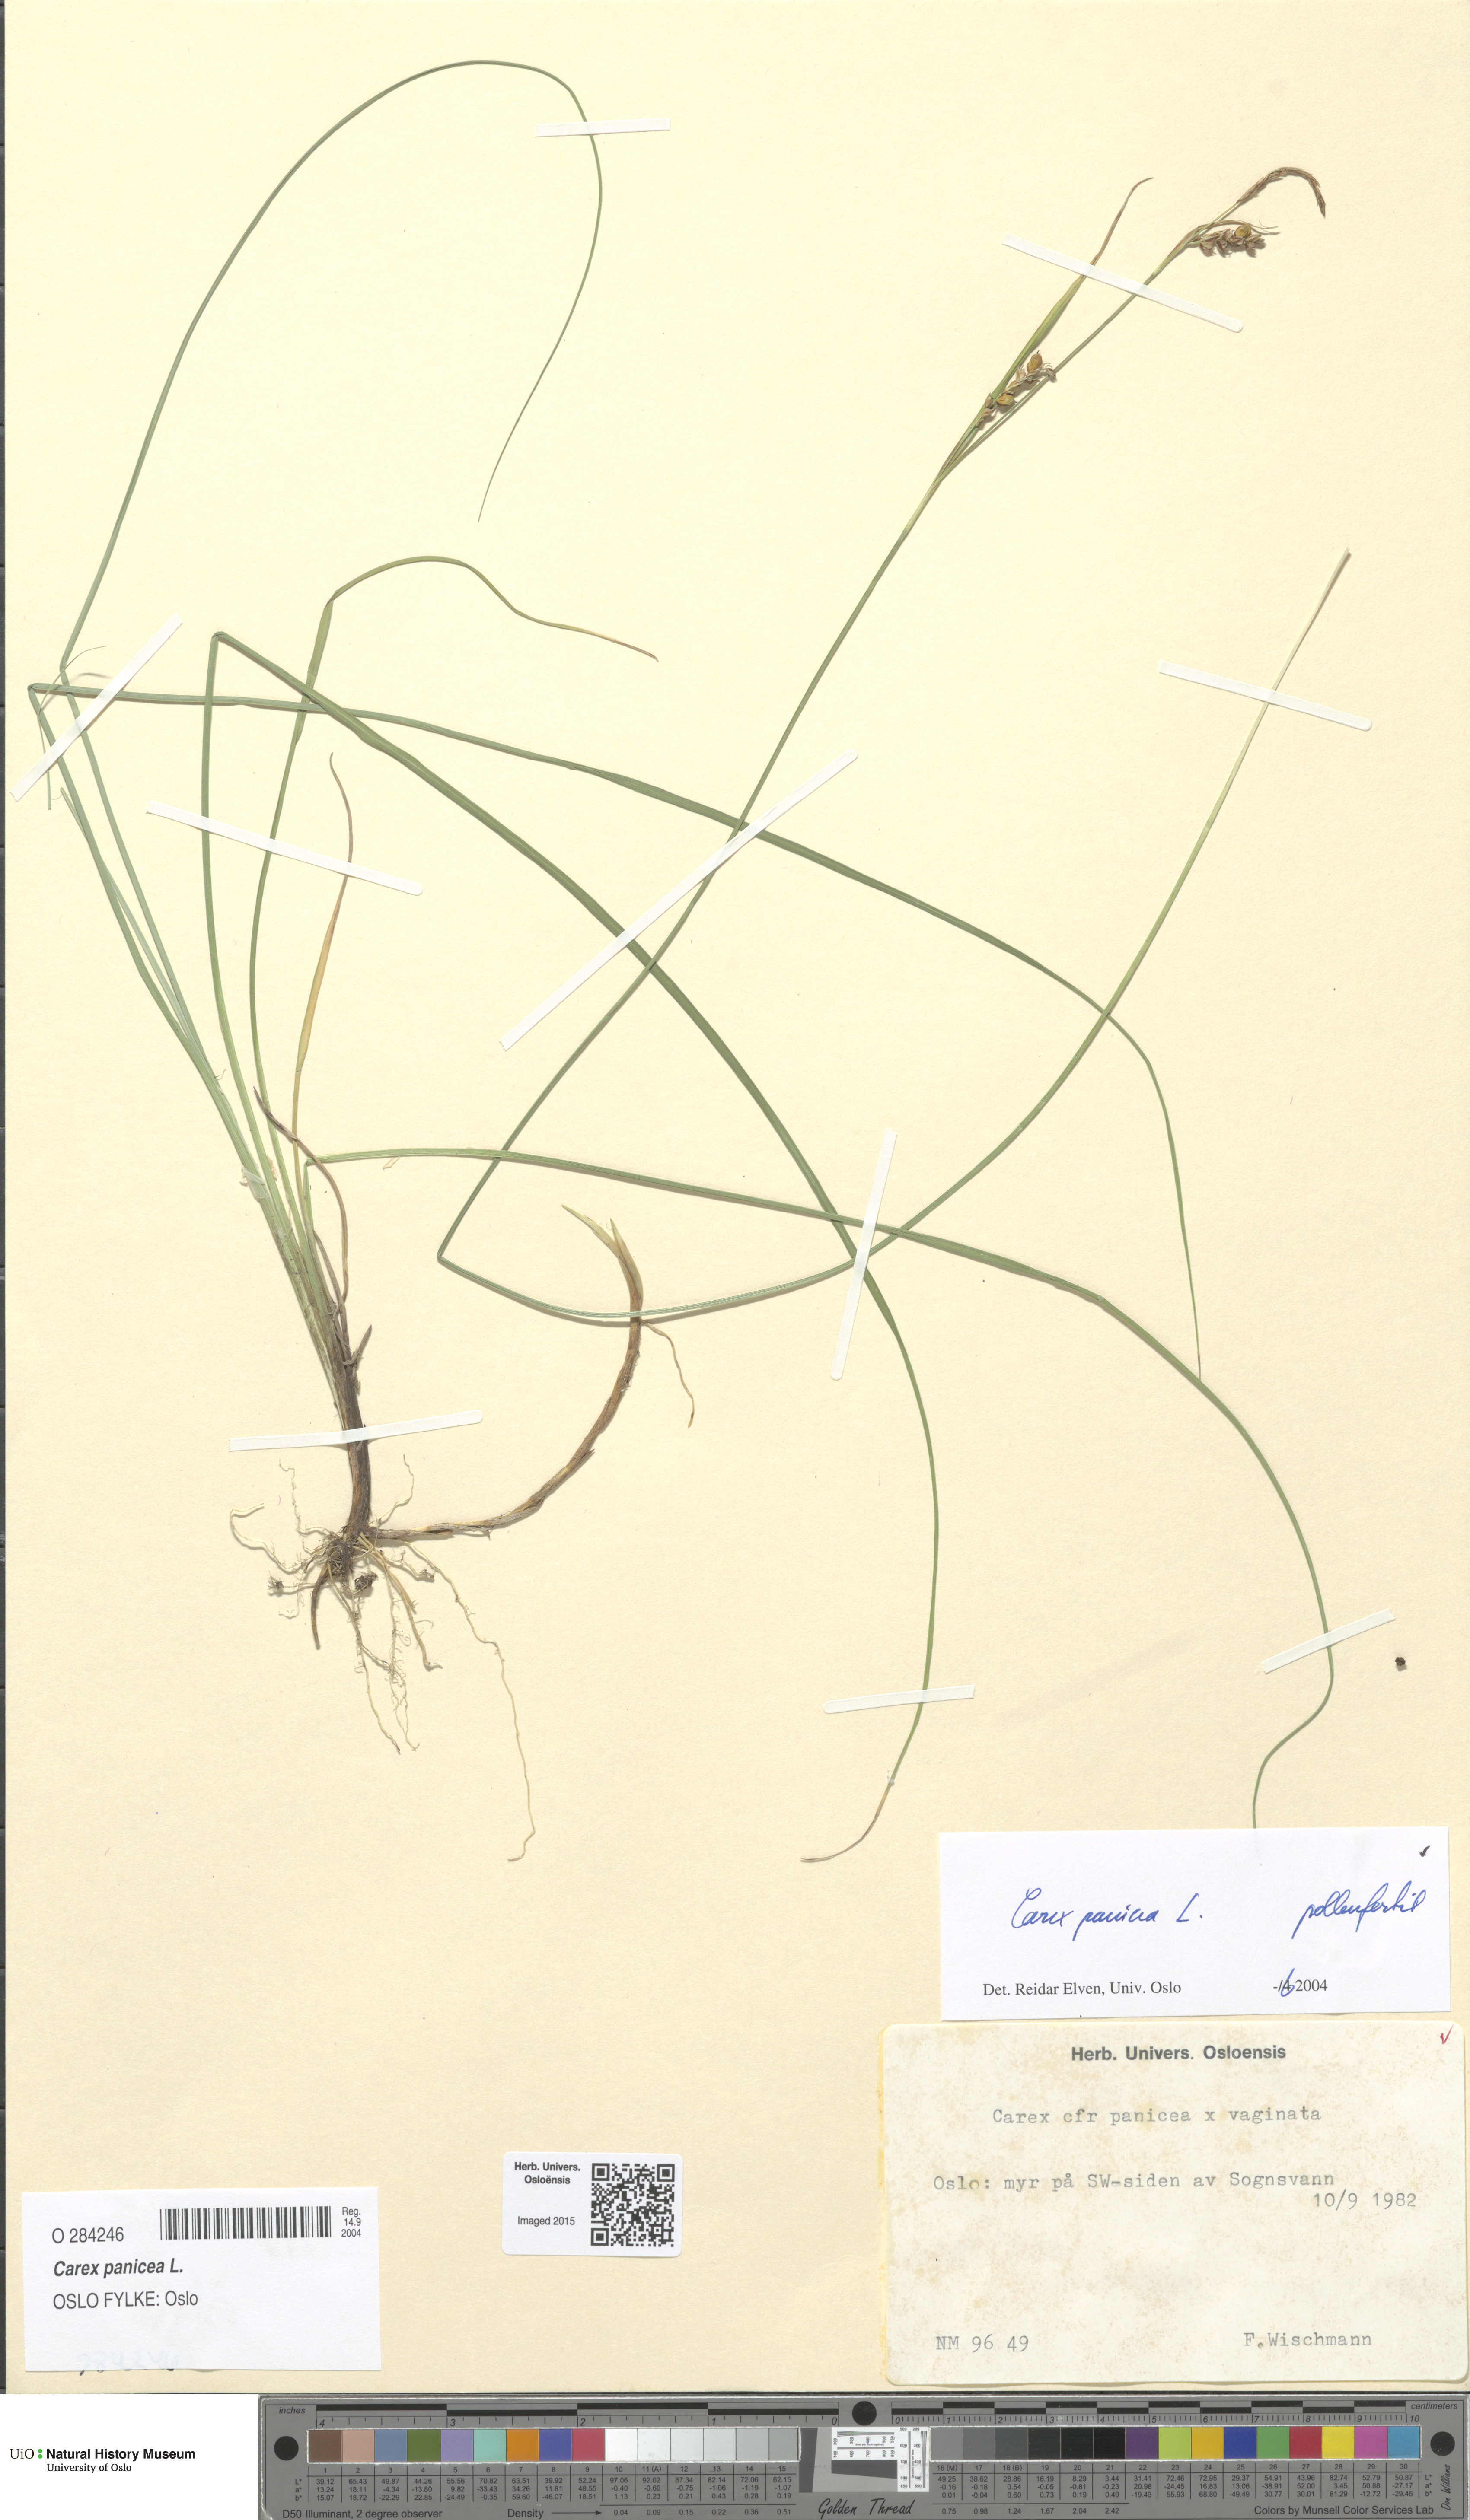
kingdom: Plantae
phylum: Tracheophyta
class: Liliopsida
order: Poales
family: Cyperaceae
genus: Carex
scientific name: Carex panicea
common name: Carnation sedge
